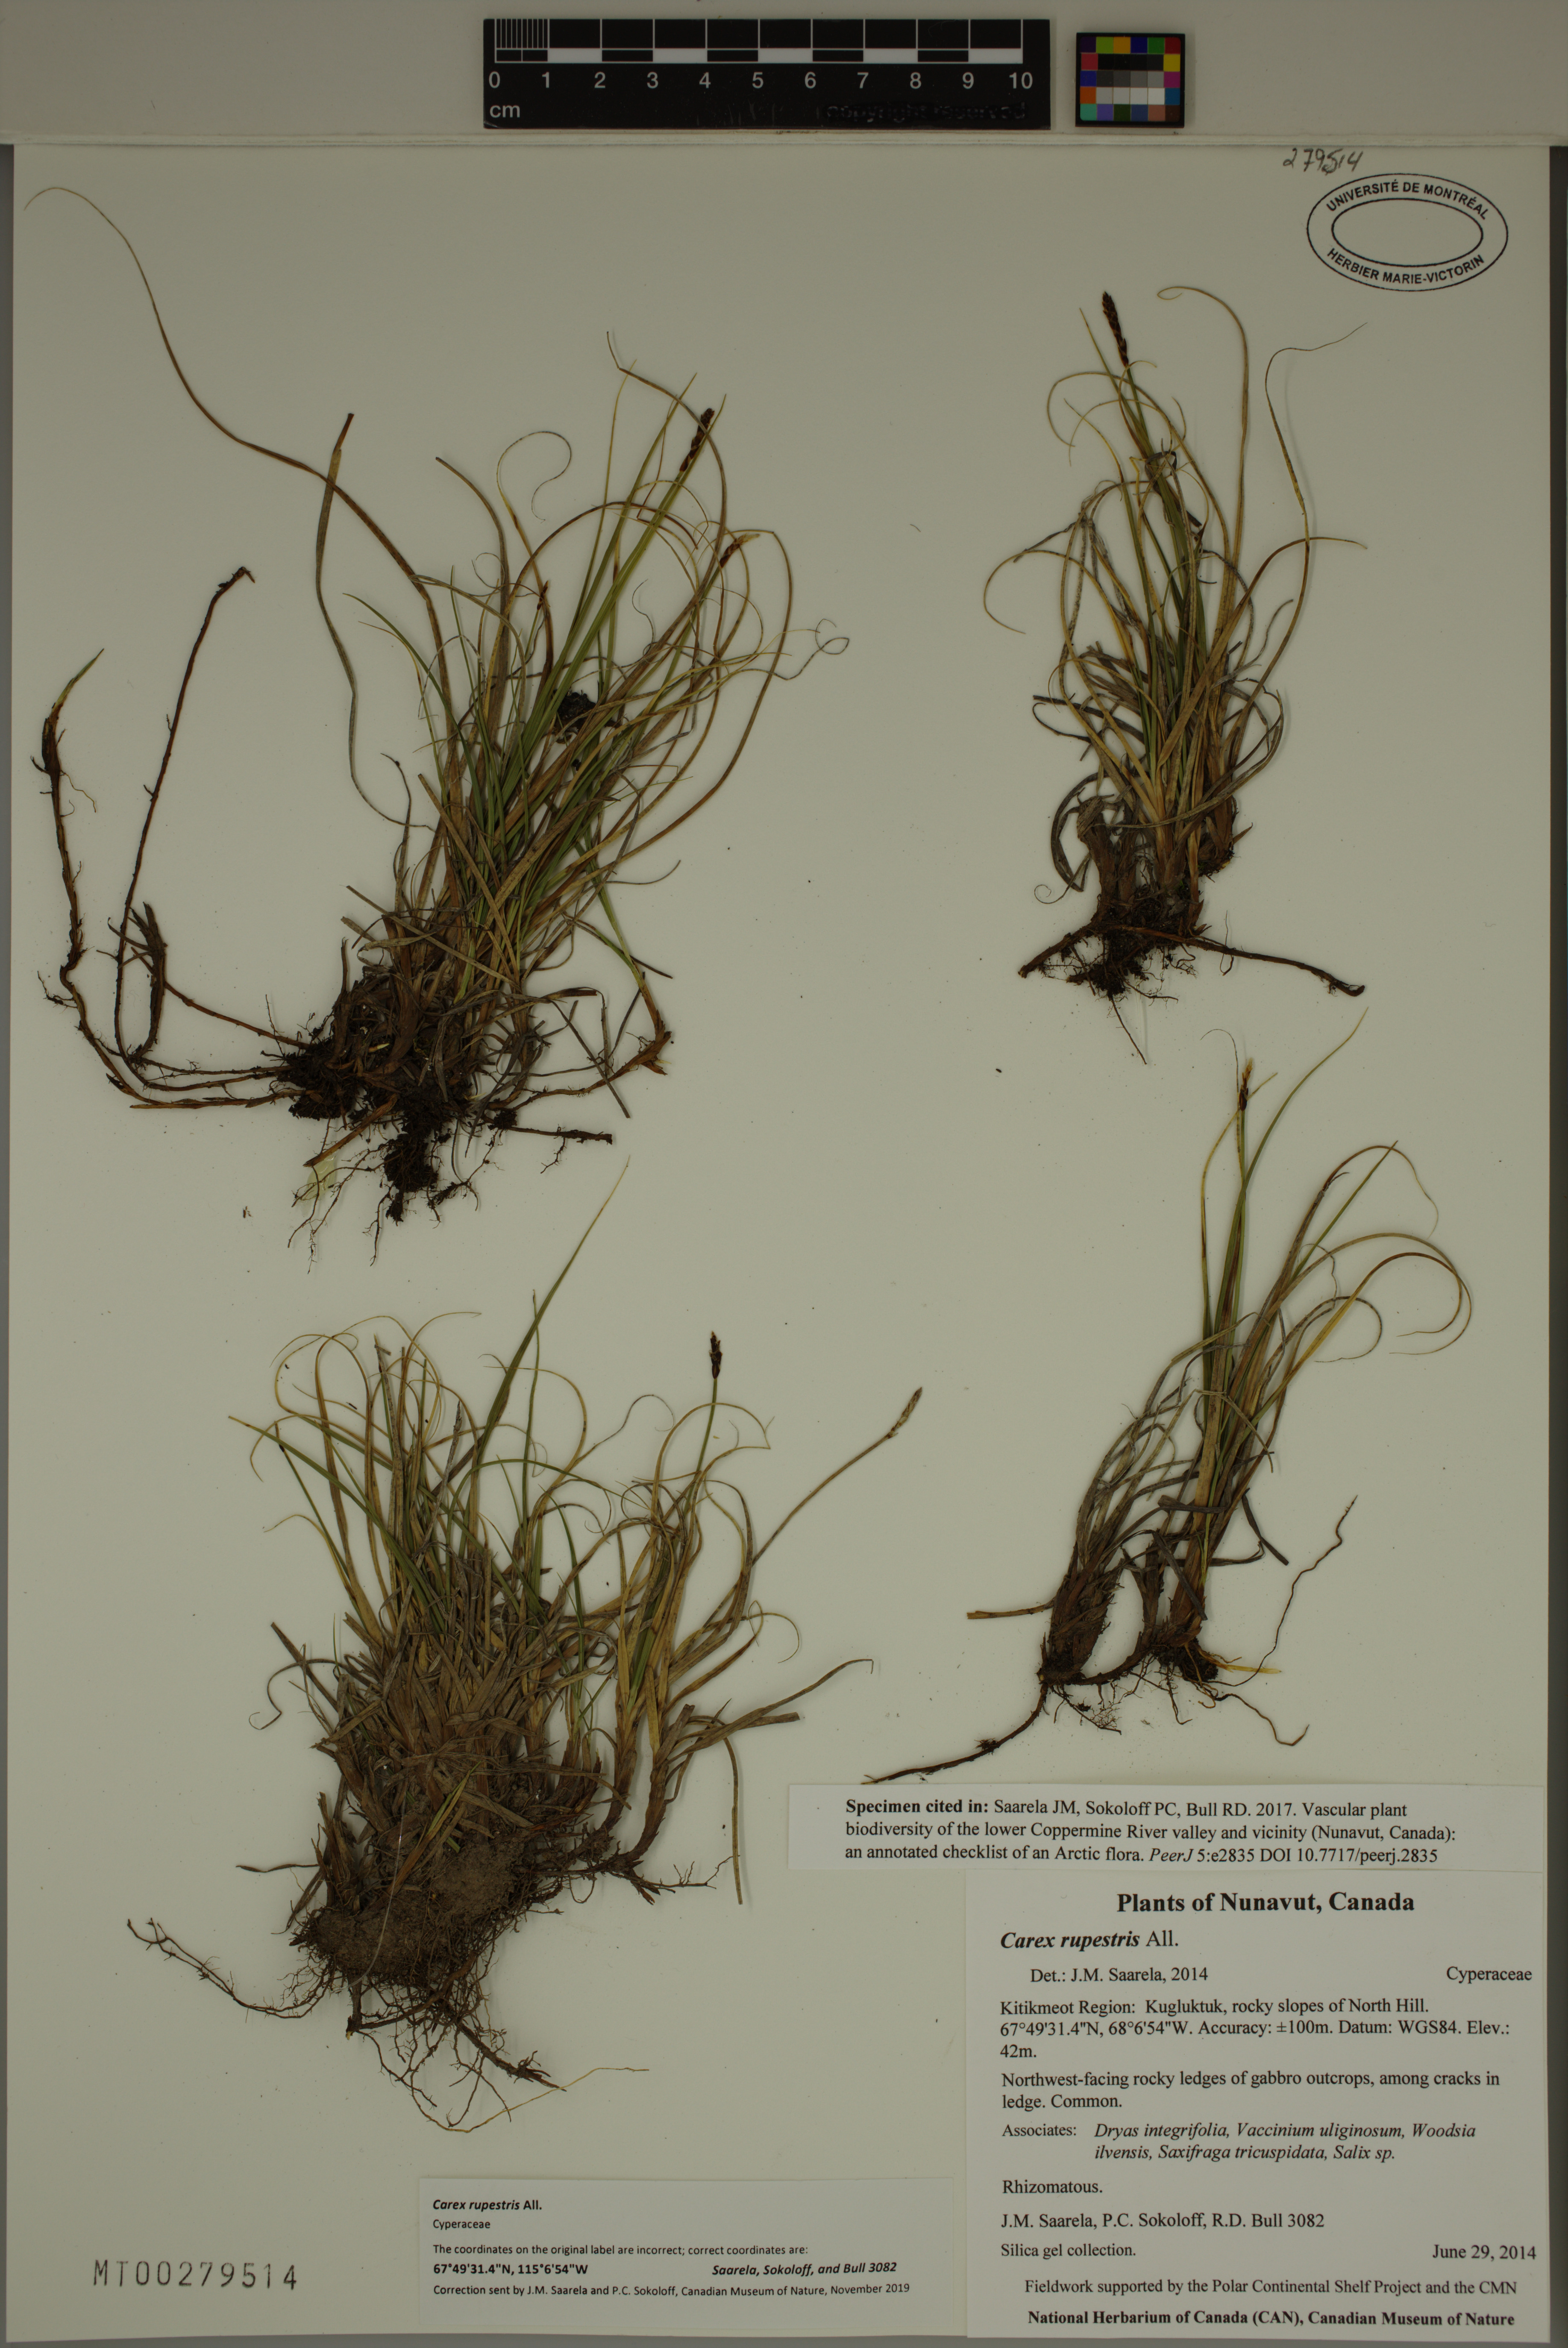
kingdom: Plantae
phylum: Tracheophyta
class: Liliopsida
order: Poales
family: Cyperaceae
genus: Carex
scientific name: Carex rupestris
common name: Rock sedge
